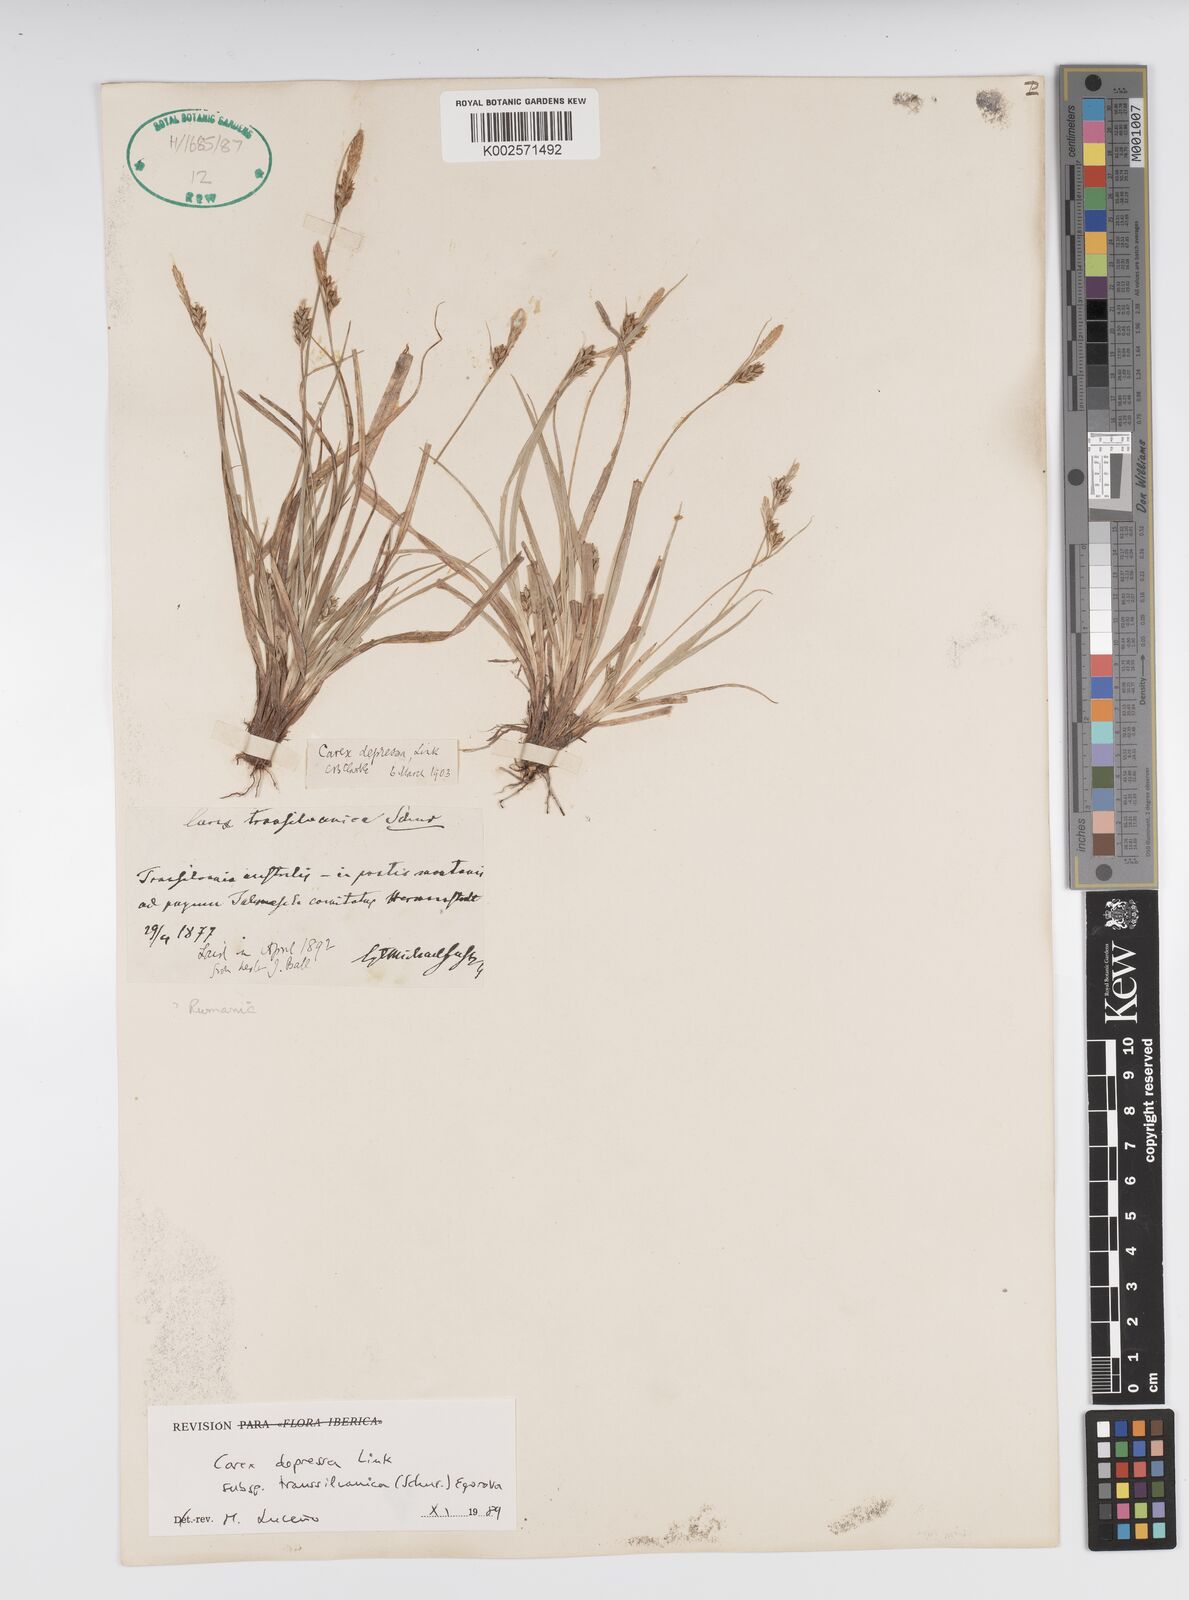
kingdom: Plantae
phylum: Tracheophyta
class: Liliopsida
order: Poales
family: Cyperaceae
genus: Carex
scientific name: Carex depressa
